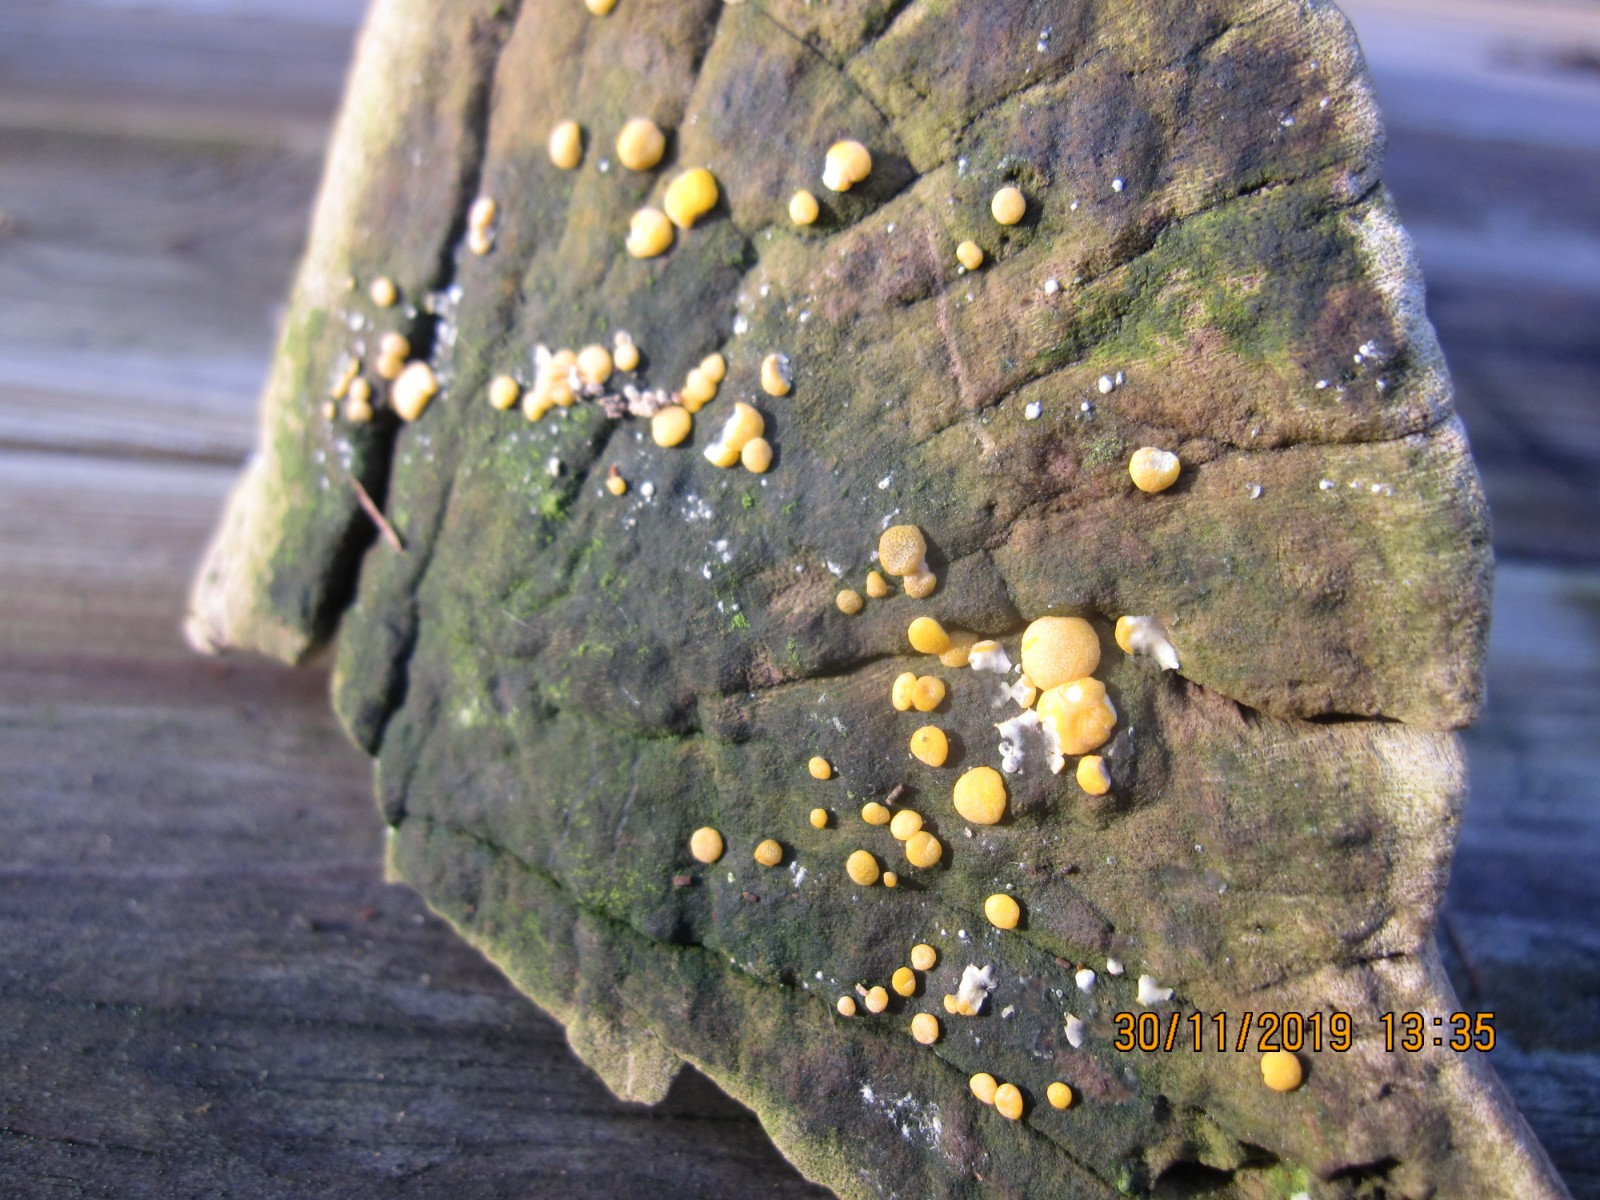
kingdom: Fungi
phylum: Ascomycota
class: Sordariomycetes
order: Hypocreales
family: Hypocreaceae
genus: Trichoderma
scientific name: Trichoderma aureoviride
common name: æggegul kødkerne
